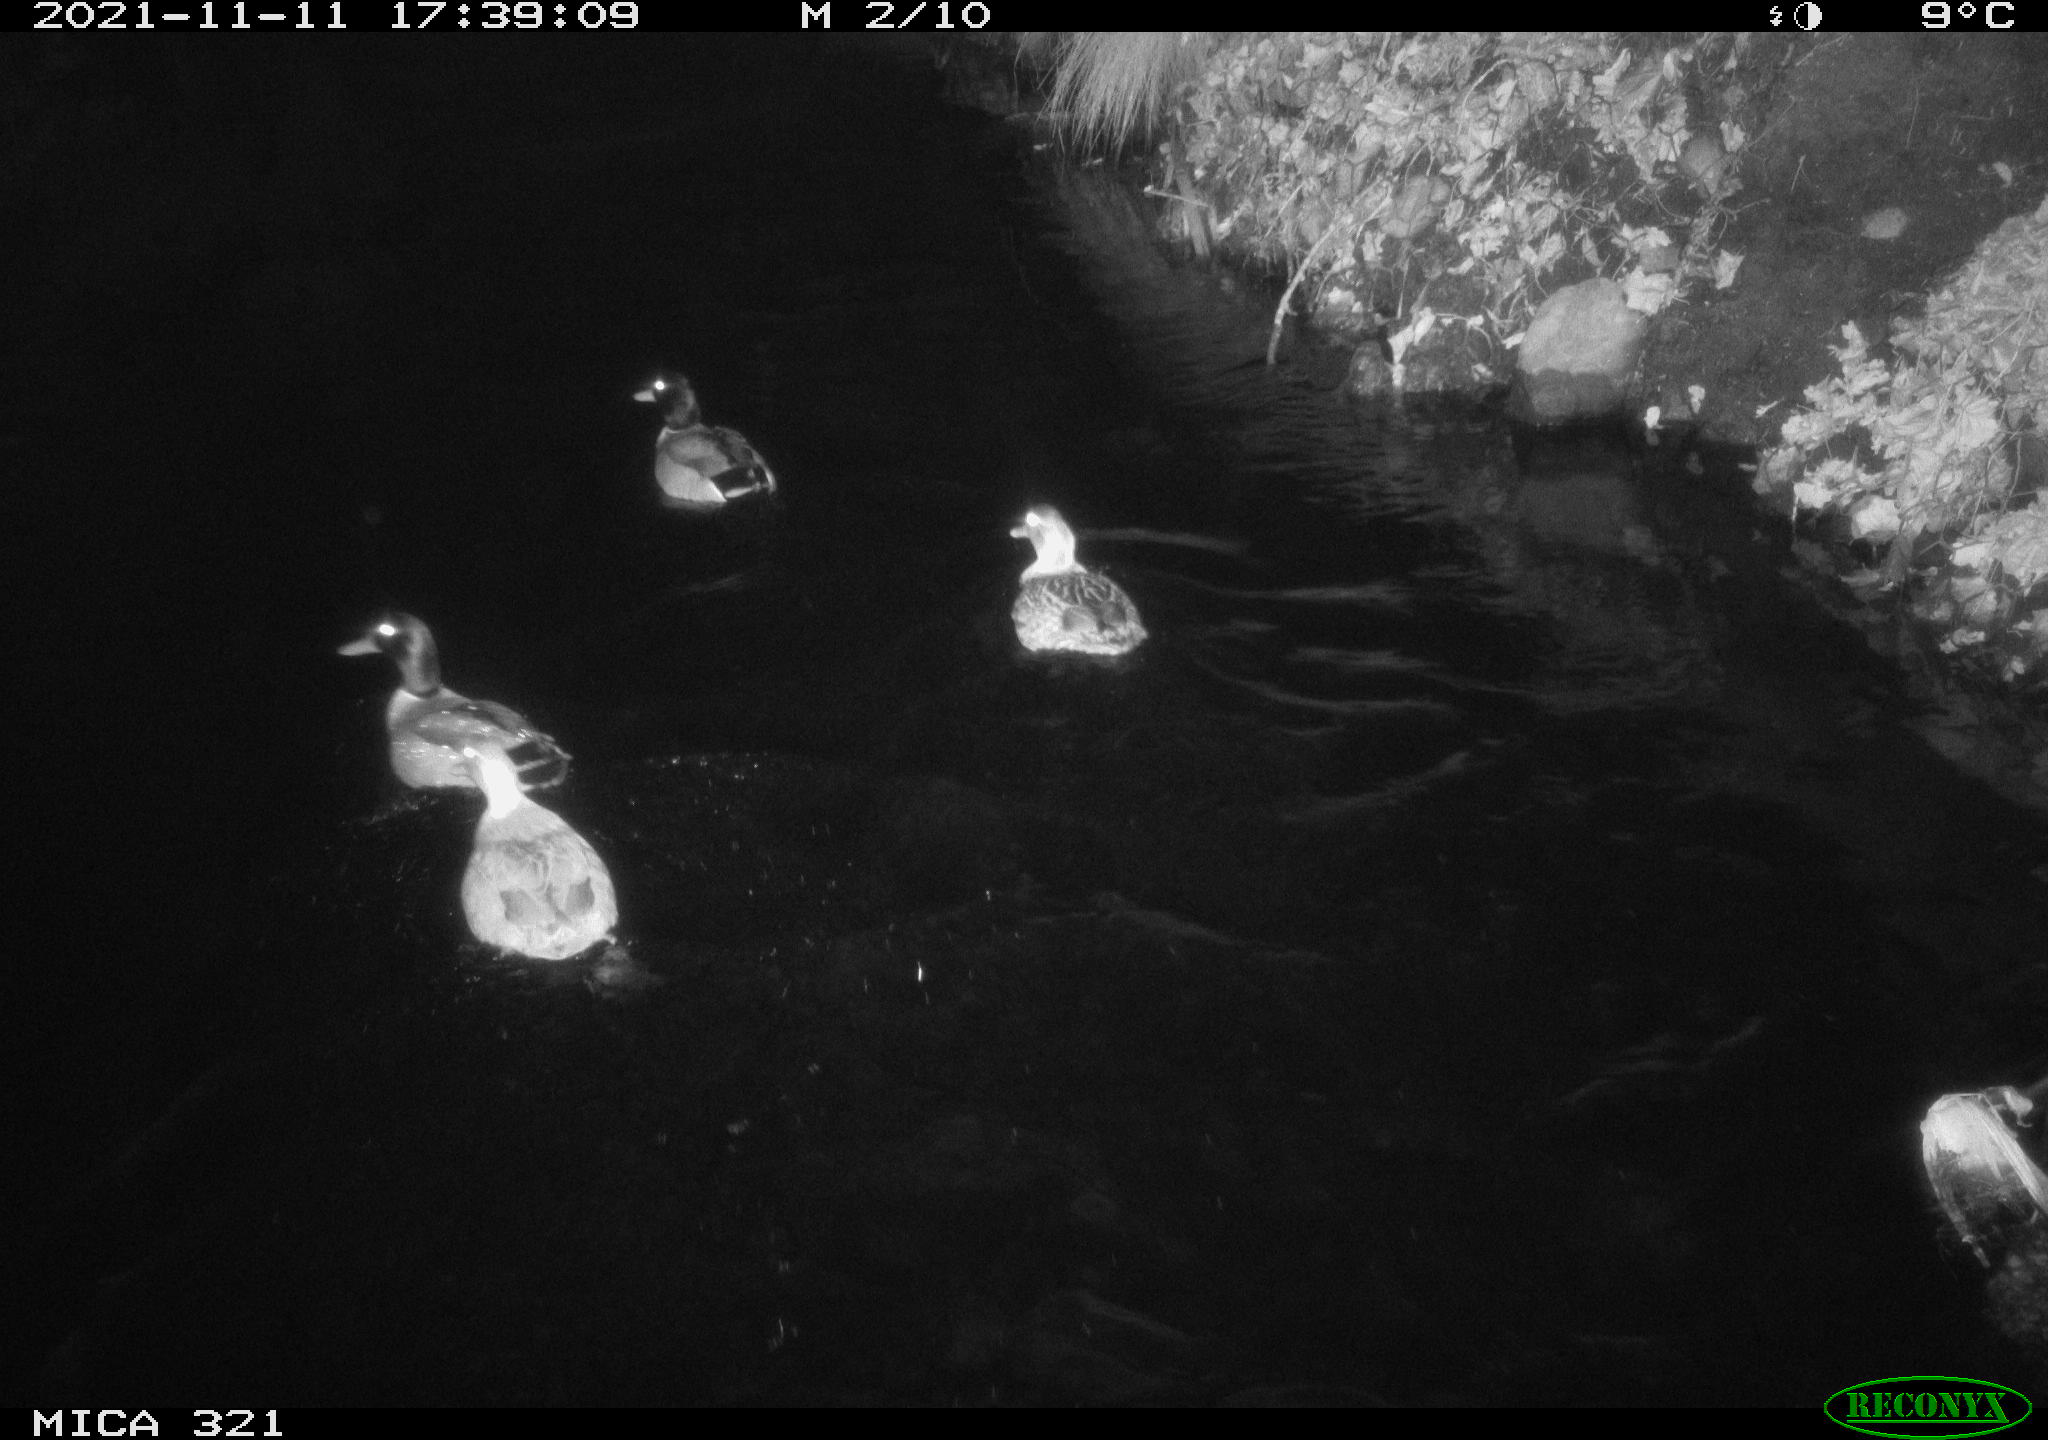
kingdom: Animalia
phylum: Chordata
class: Aves
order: Anseriformes
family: Anatidae
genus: Anas
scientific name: Anas platyrhynchos
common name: Mallard
